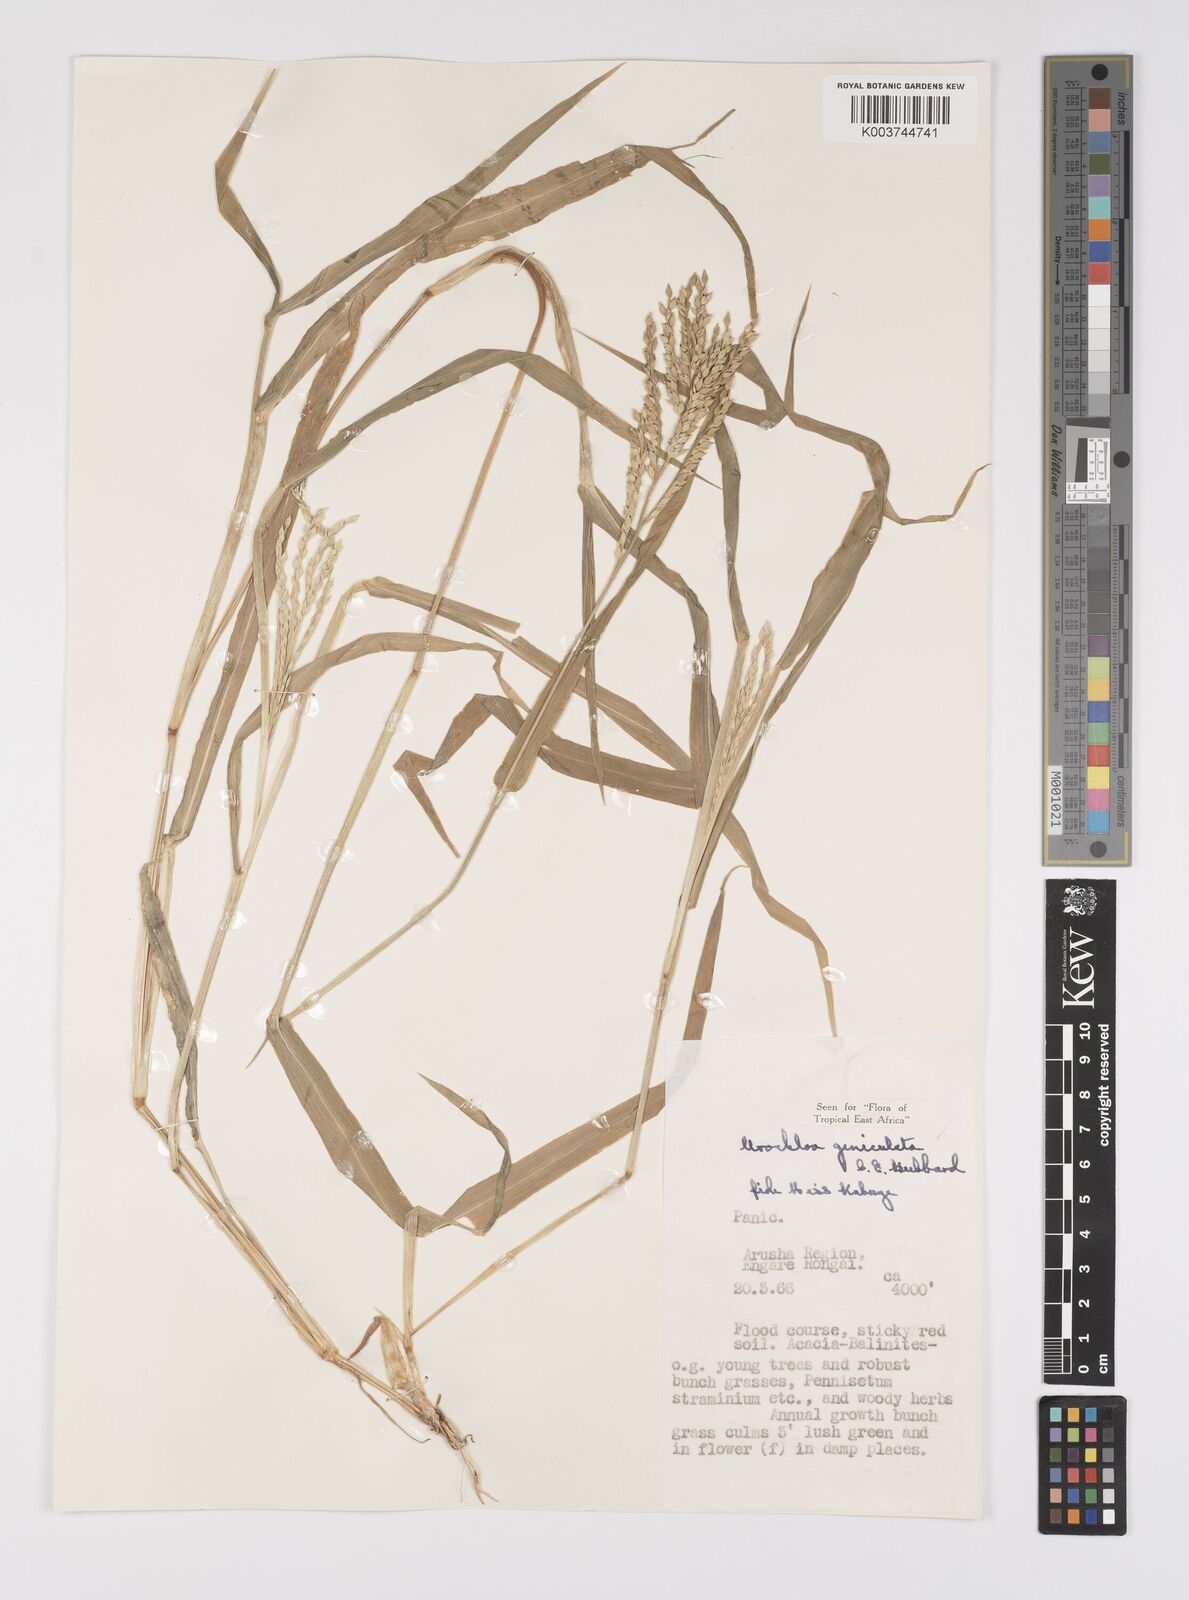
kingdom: Plantae
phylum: Tracheophyta
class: Liliopsida
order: Poales
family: Poaceae
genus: Urochloa
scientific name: Urochloa brachyura
